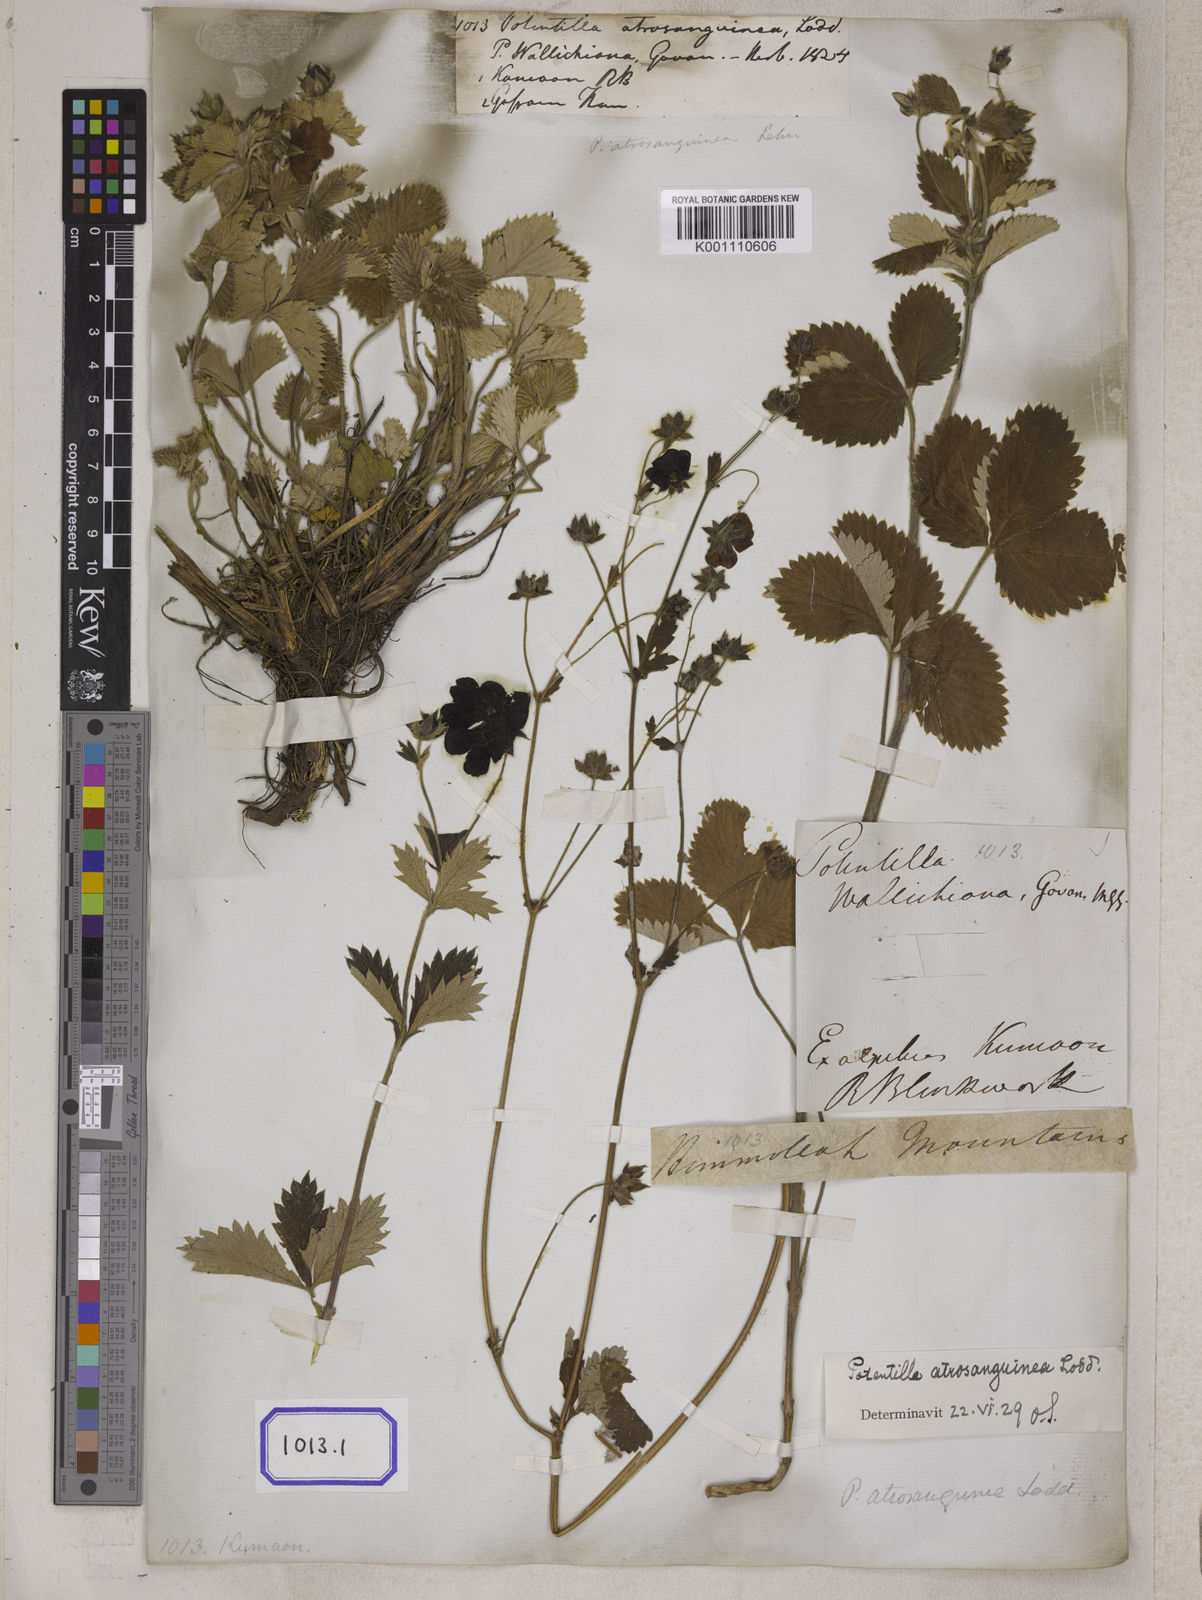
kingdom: Plantae
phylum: Tracheophyta
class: Magnoliopsida
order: Rosales
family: Rosaceae
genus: Potentilla
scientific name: Potentilla
